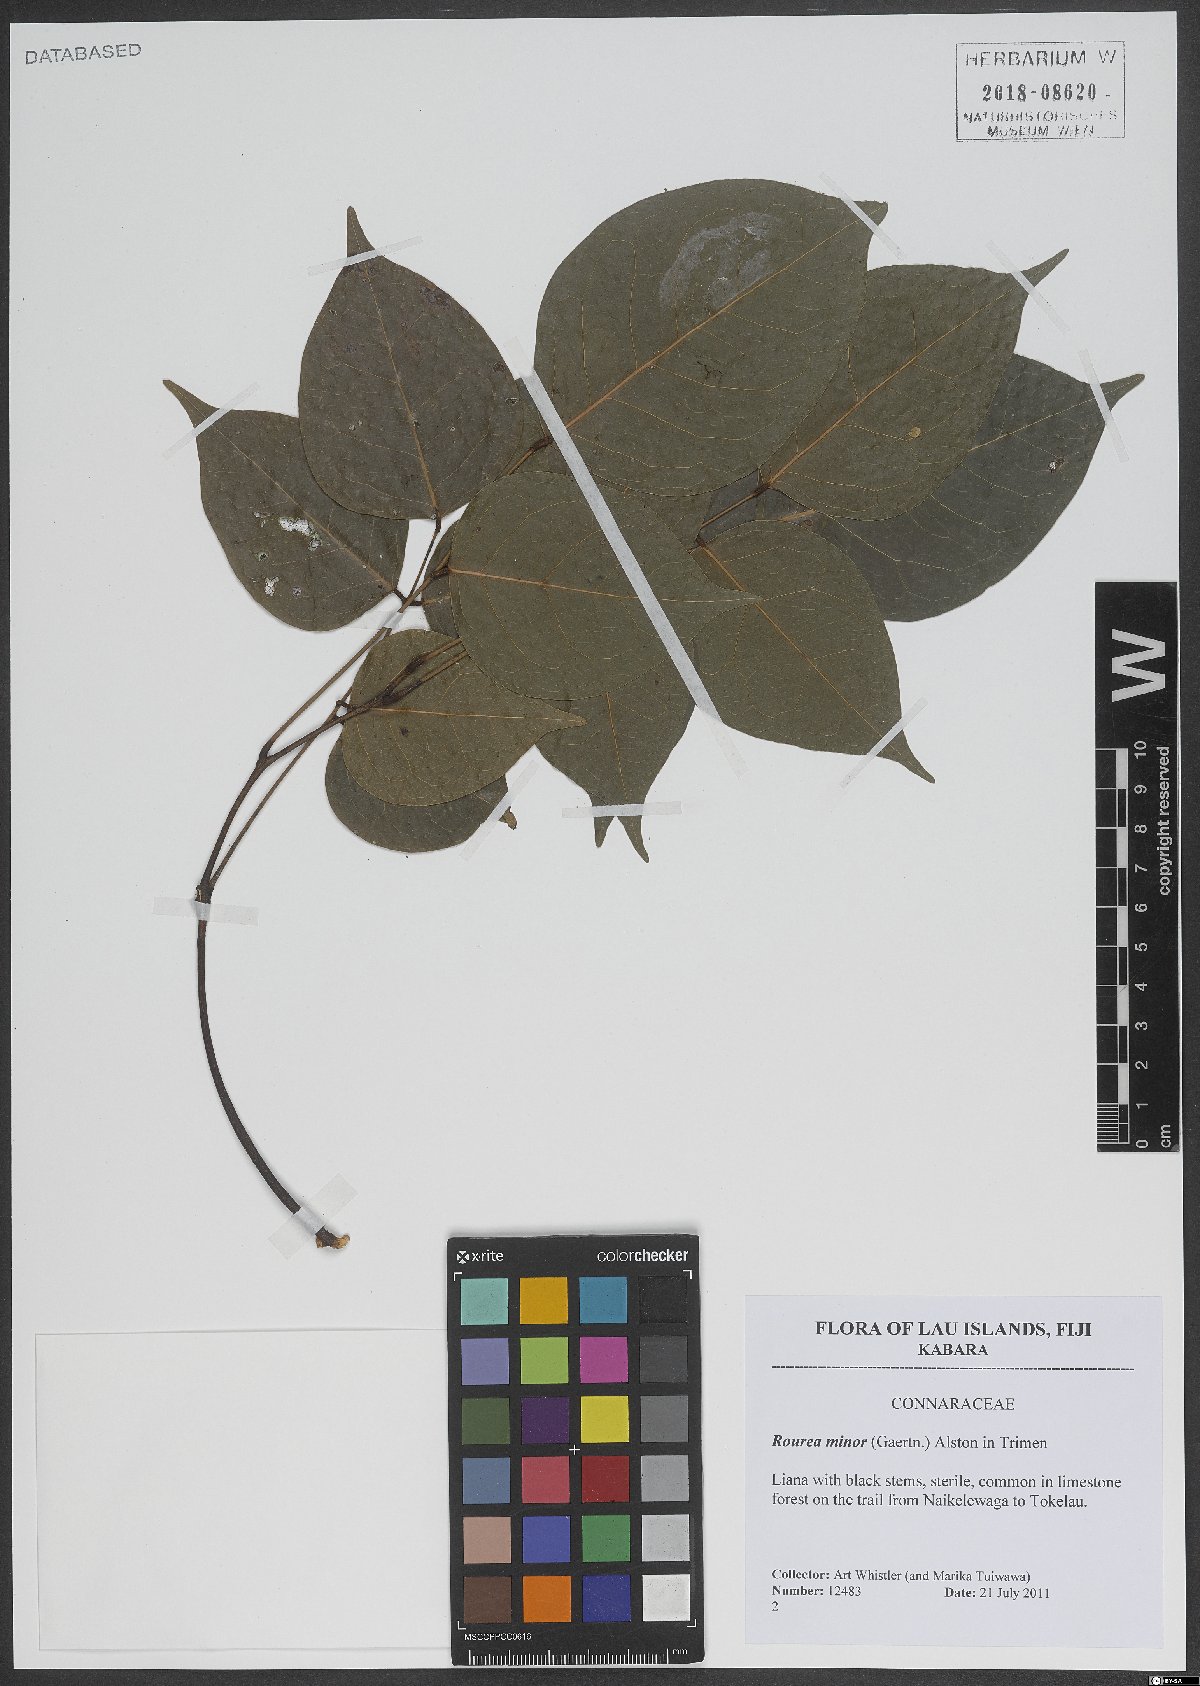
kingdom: Plantae
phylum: Tracheophyta
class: Magnoliopsida
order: Oxalidales
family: Connaraceae
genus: Rourea
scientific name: Rourea minor
